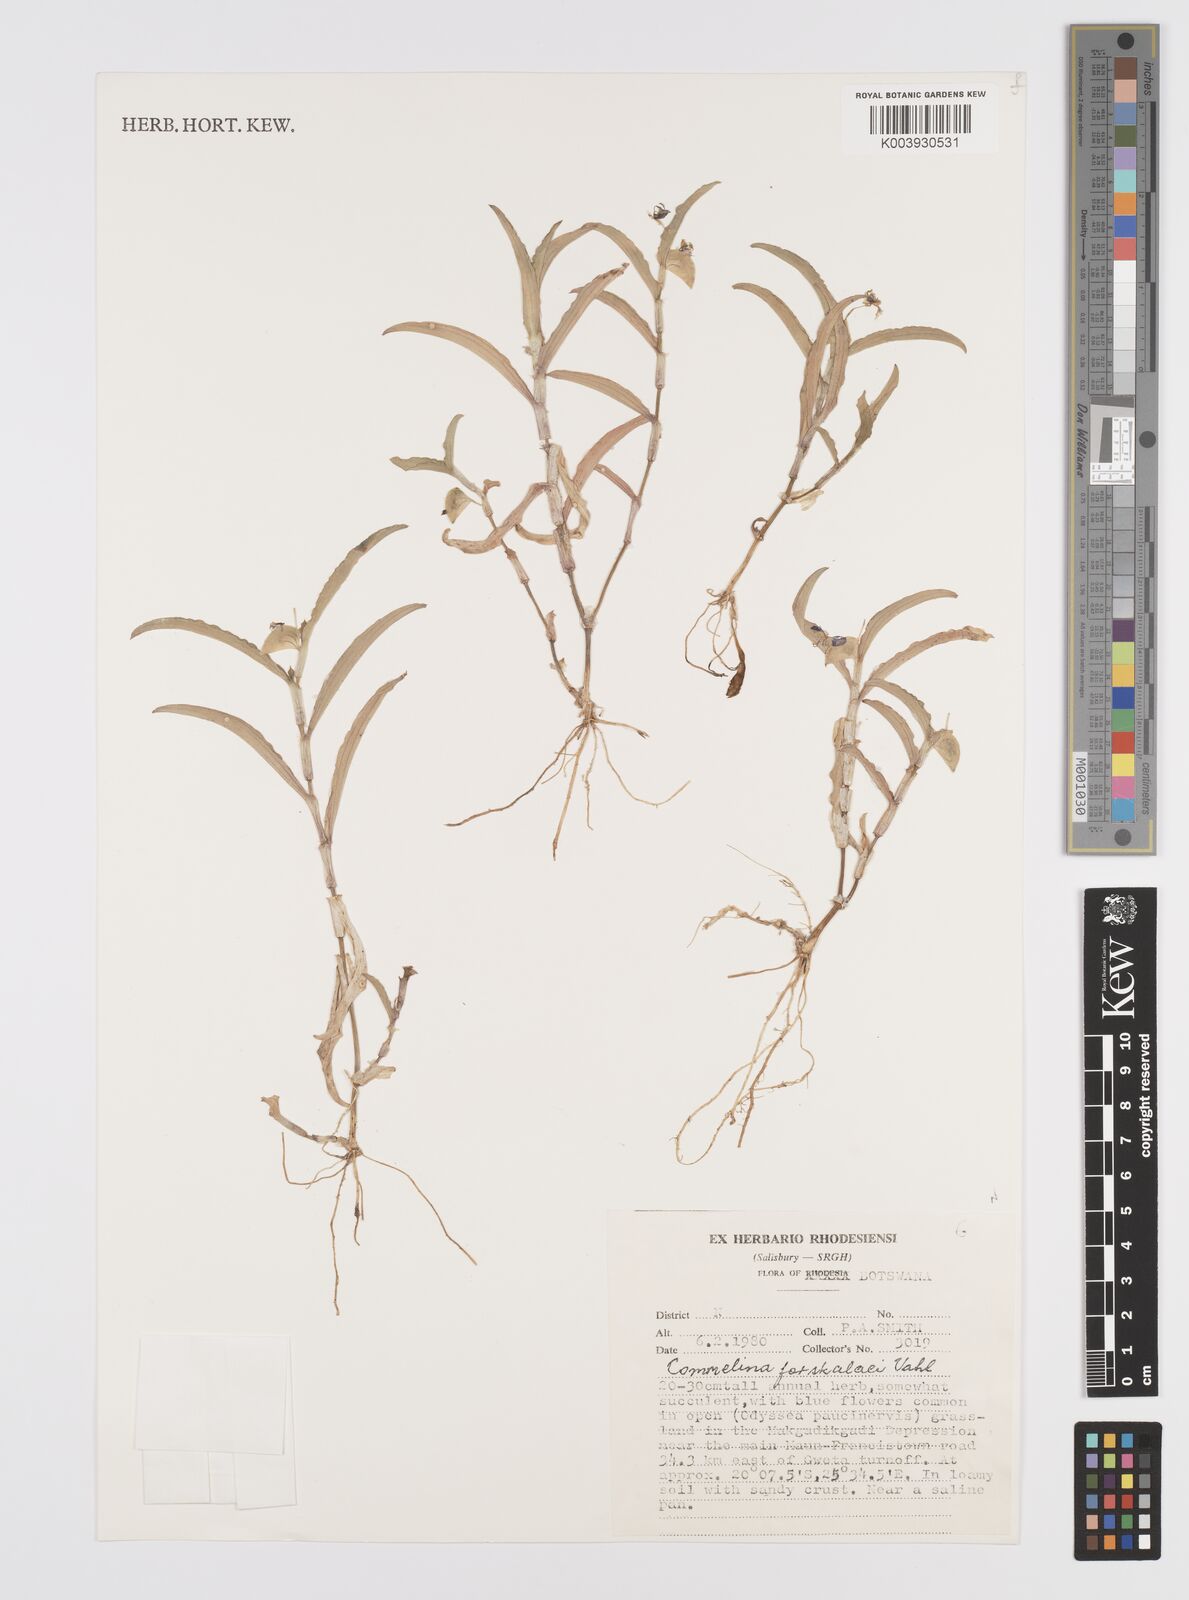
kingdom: Plantae
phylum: Tracheophyta
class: Liliopsida
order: Commelinales
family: Commelinaceae
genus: Commelina
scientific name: Commelina forskaolii
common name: Rat's ear
